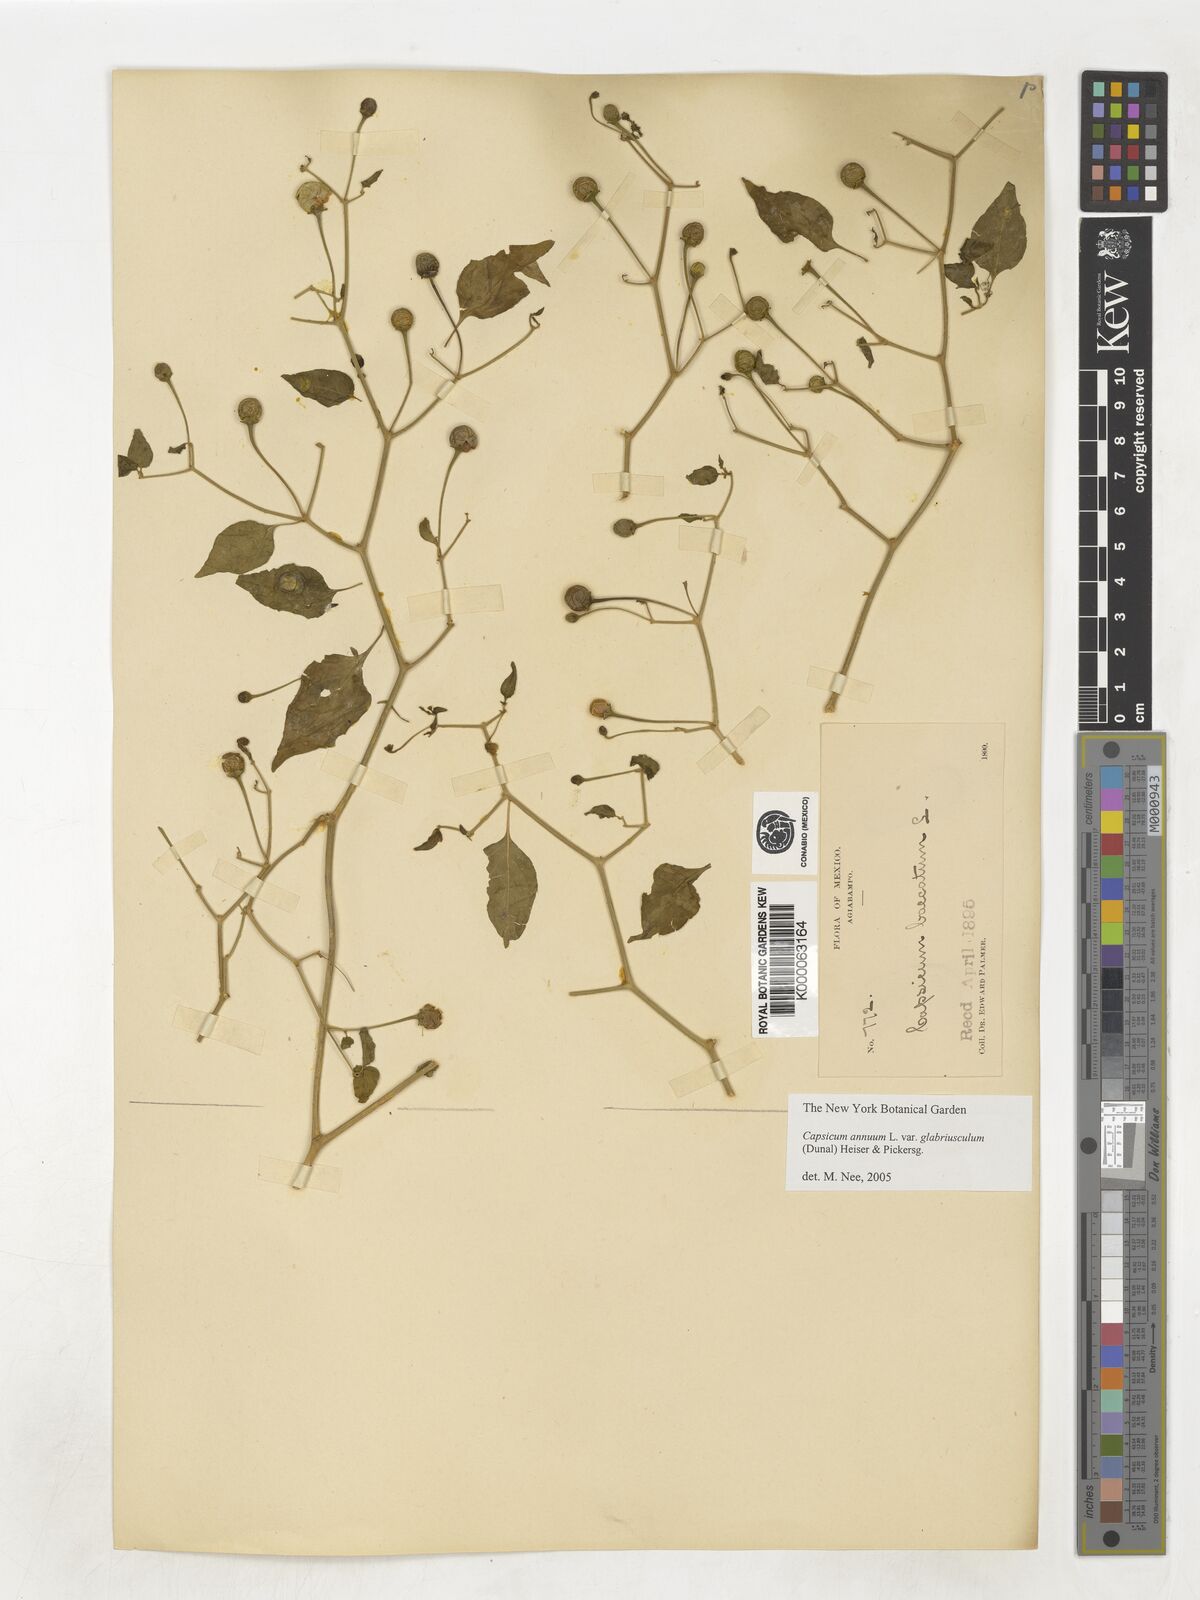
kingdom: Plantae
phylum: Tracheophyta
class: Magnoliopsida
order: Solanales
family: Solanaceae
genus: Capsicum
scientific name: Capsicum baccatum
